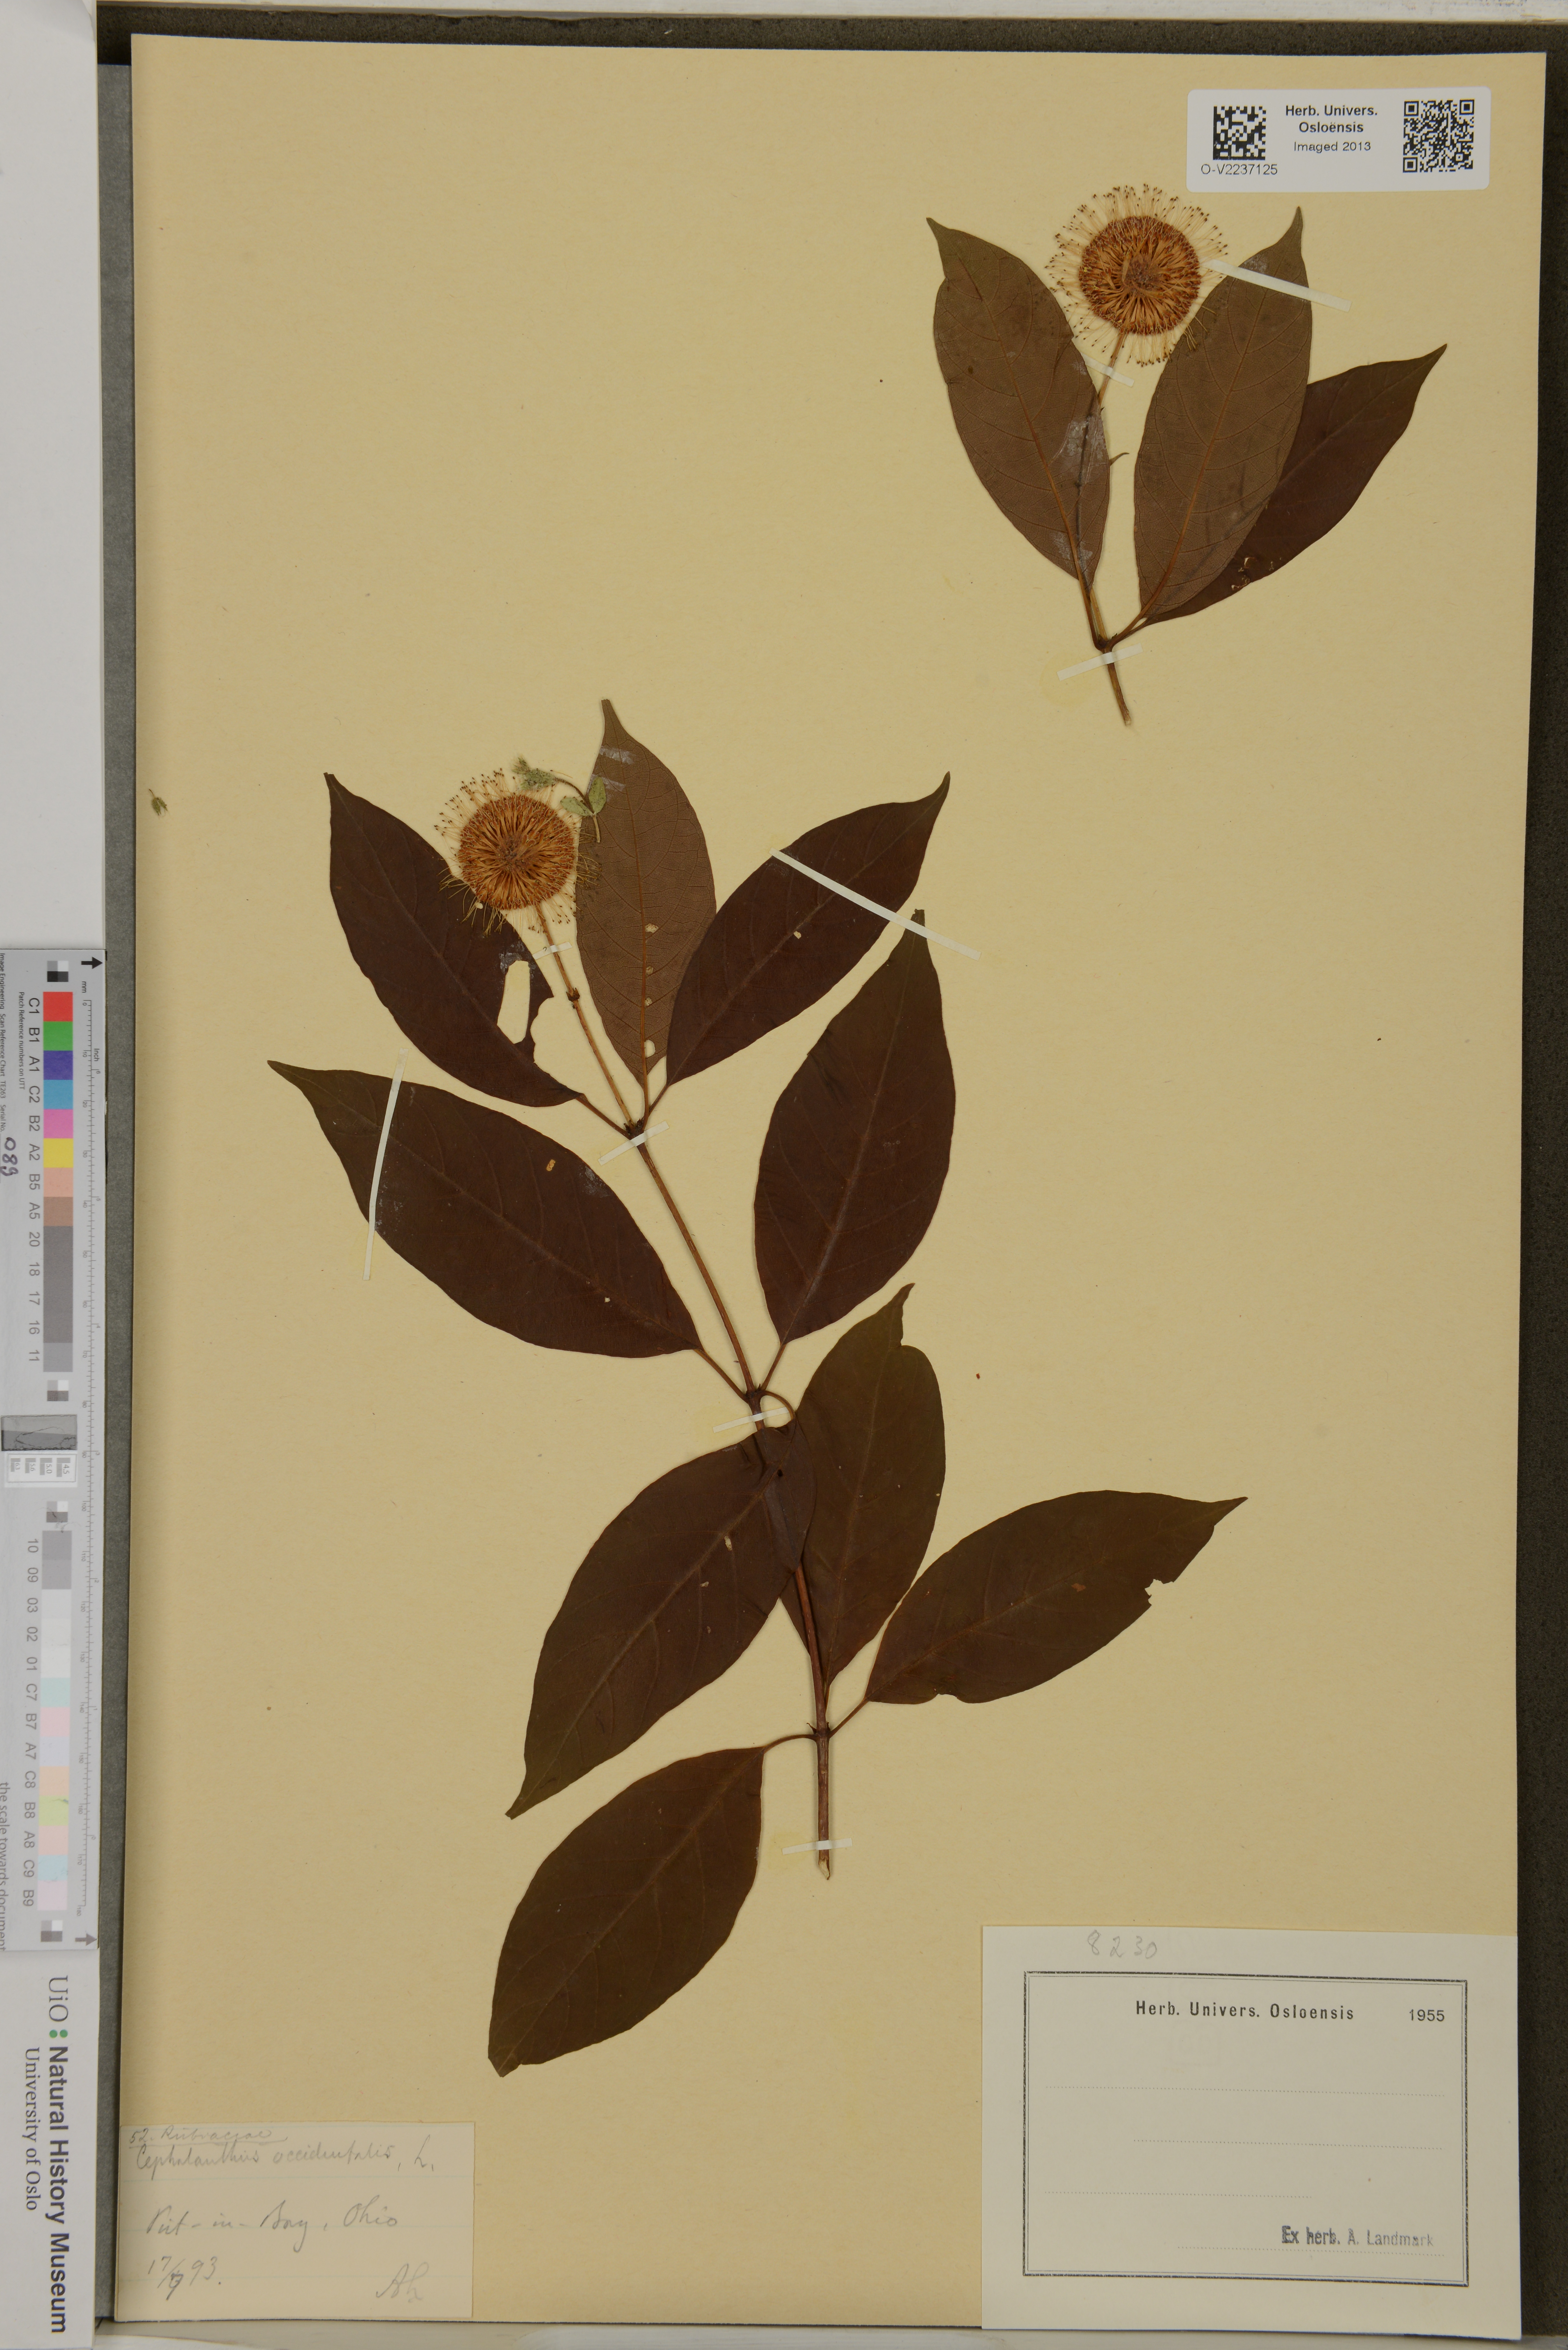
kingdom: Plantae
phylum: Tracheophyta
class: Magnoliopsida
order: Gentianales
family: Rubiaceae
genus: Cephalanthus
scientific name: Cephalanthus occidentalis
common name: Button-willow
